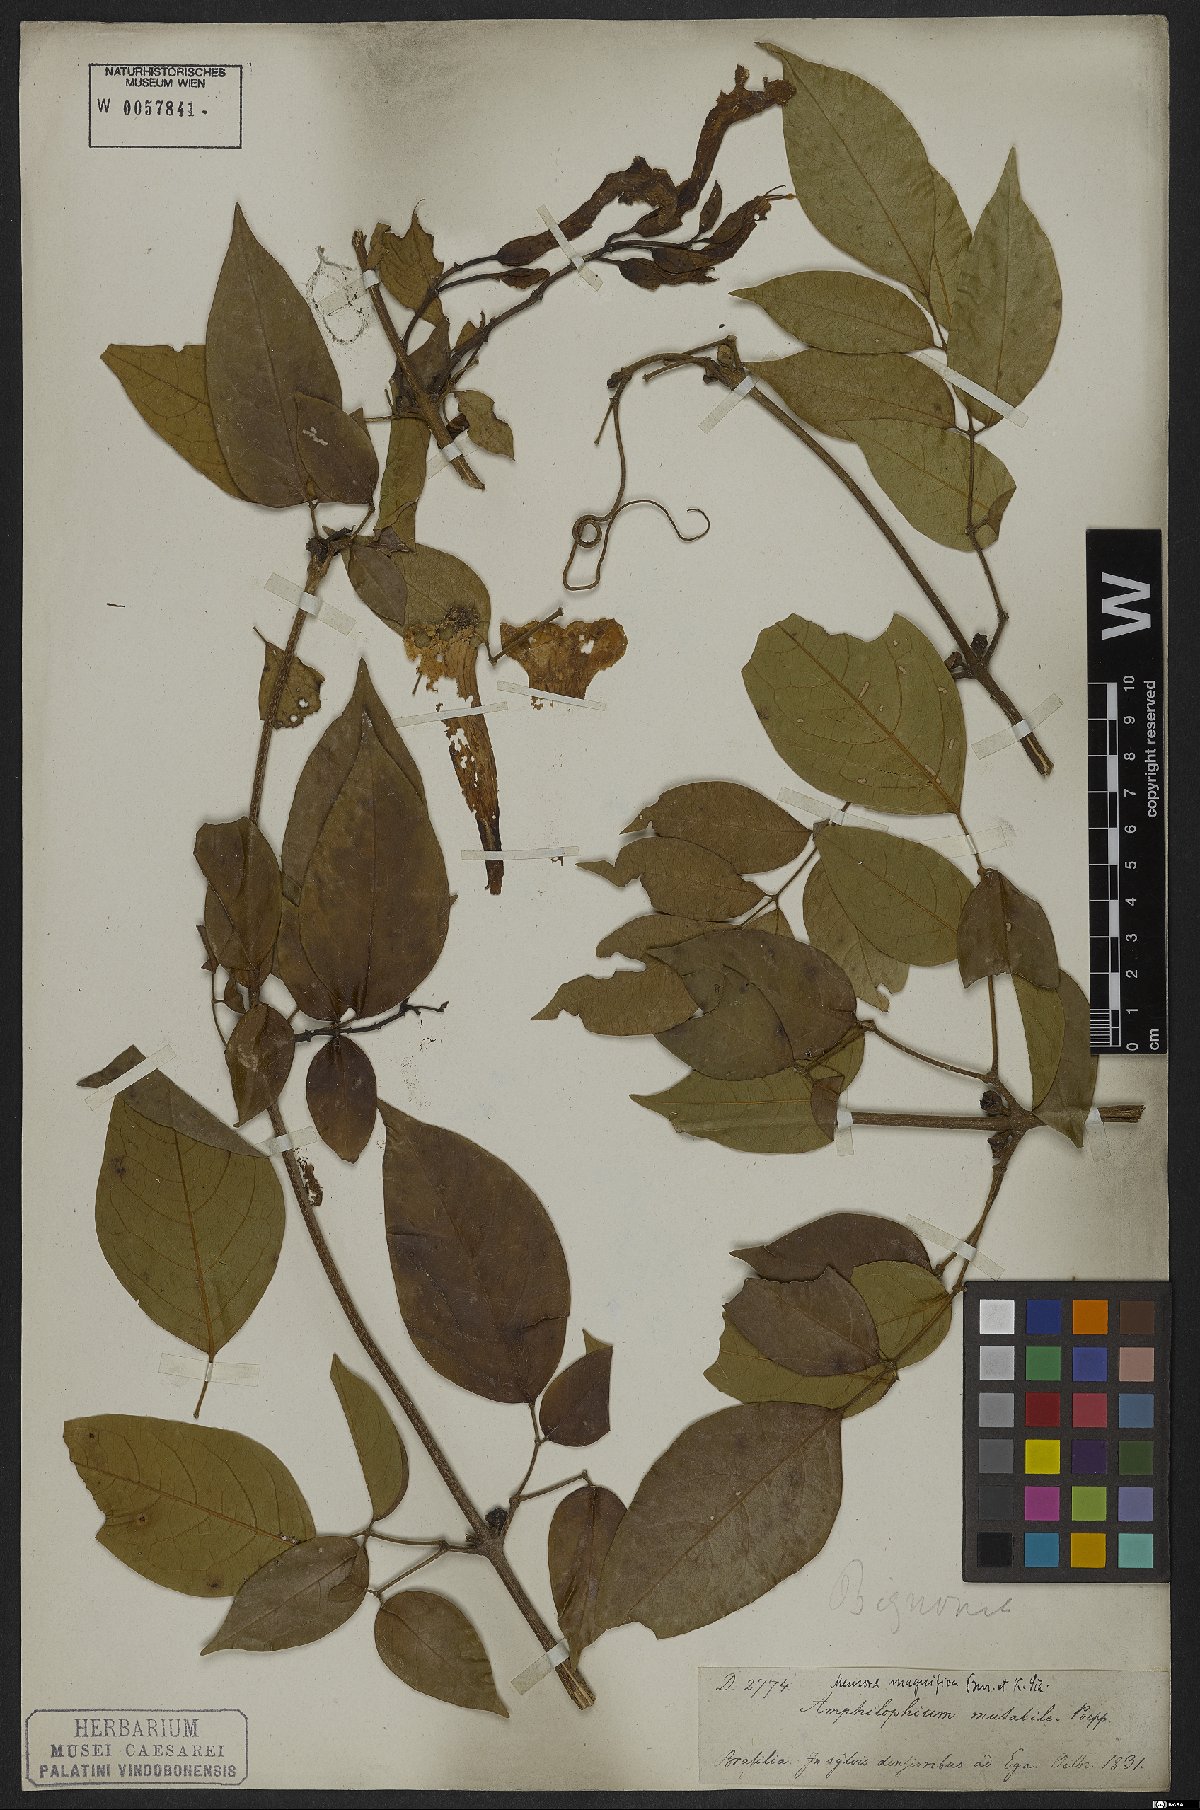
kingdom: Plantae
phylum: Tracheophyta
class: Magnoliopsida
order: Lamiales
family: Bignoniaceae
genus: Adenocalymma
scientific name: Adenocalymma magnificum
